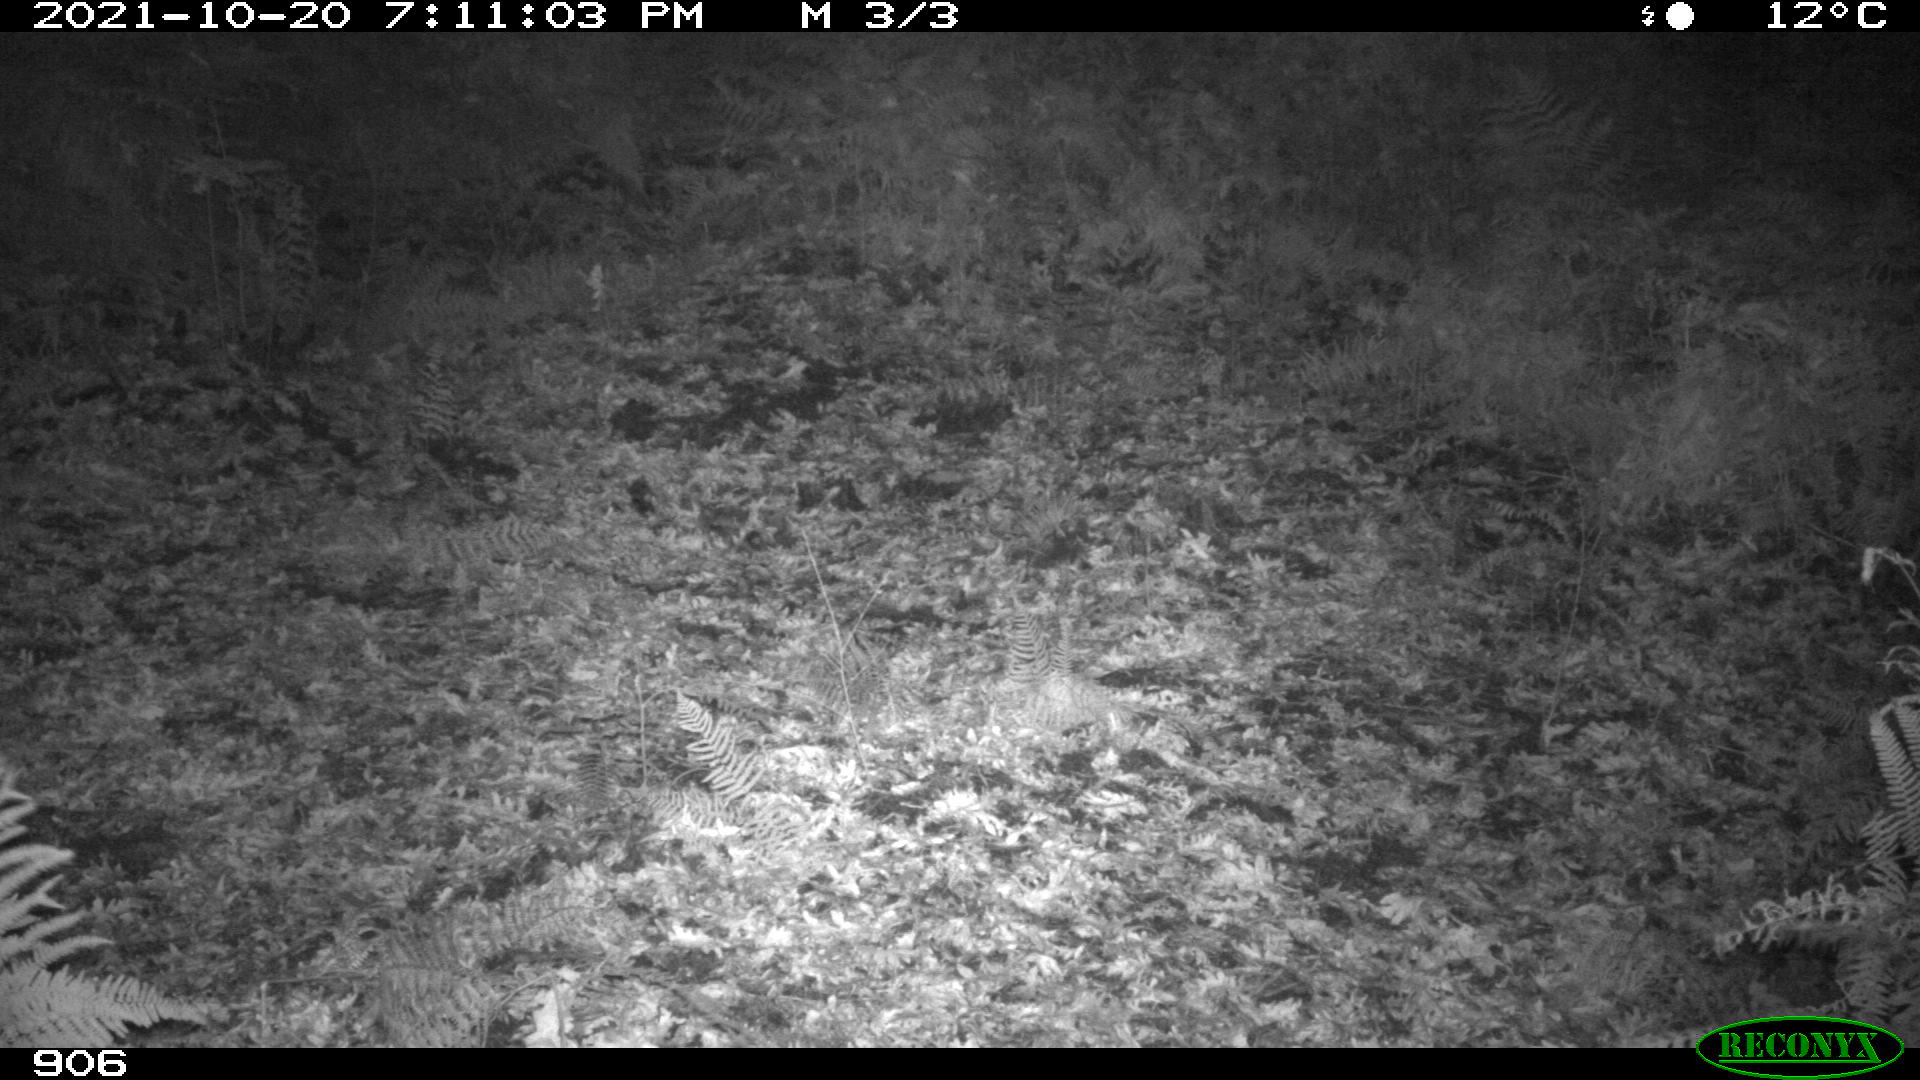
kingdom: Animalia
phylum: Chordata
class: Mammalia
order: Artiodactyla
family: Cervidae
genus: Capreolus
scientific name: Capreolus capreolus
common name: Western roe deer
